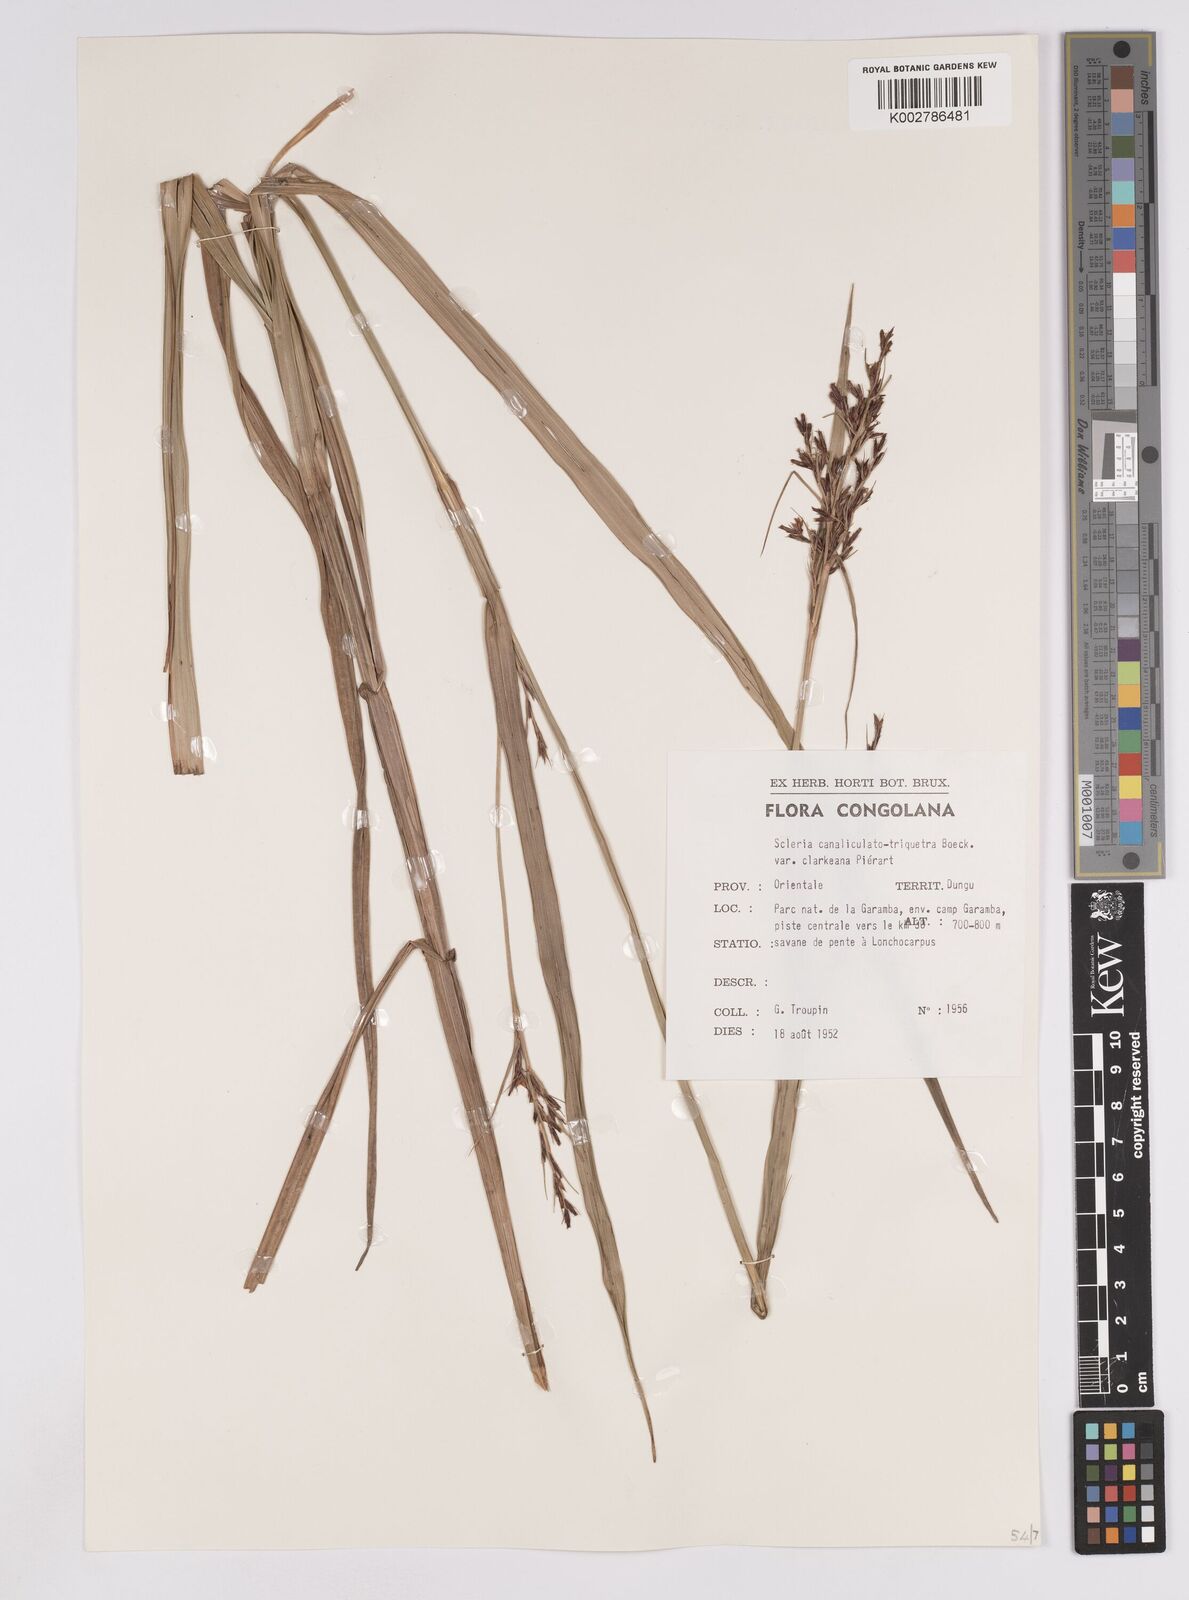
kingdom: Plantae
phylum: Tracheophyta
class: Liliopsida
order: Poales
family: Cyperaceae
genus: Scleria
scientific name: Scleria lagoensis
